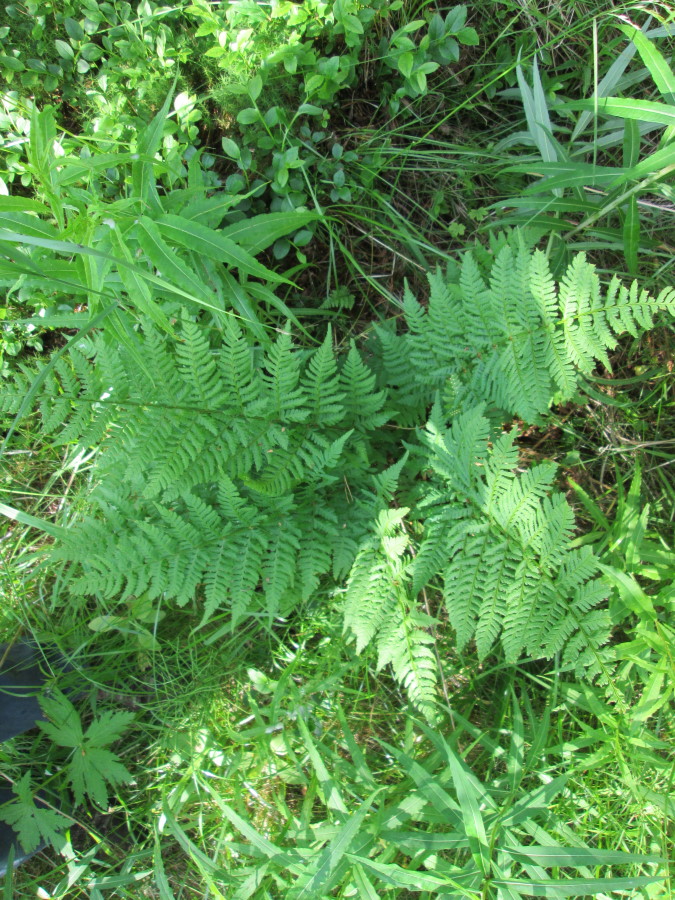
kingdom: Plantae
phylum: Tracheophyta
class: Polypodiopsida
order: Polypodiales
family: Dryopteridaceae
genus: Dryopteris
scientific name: Dryopteris carthusiana
